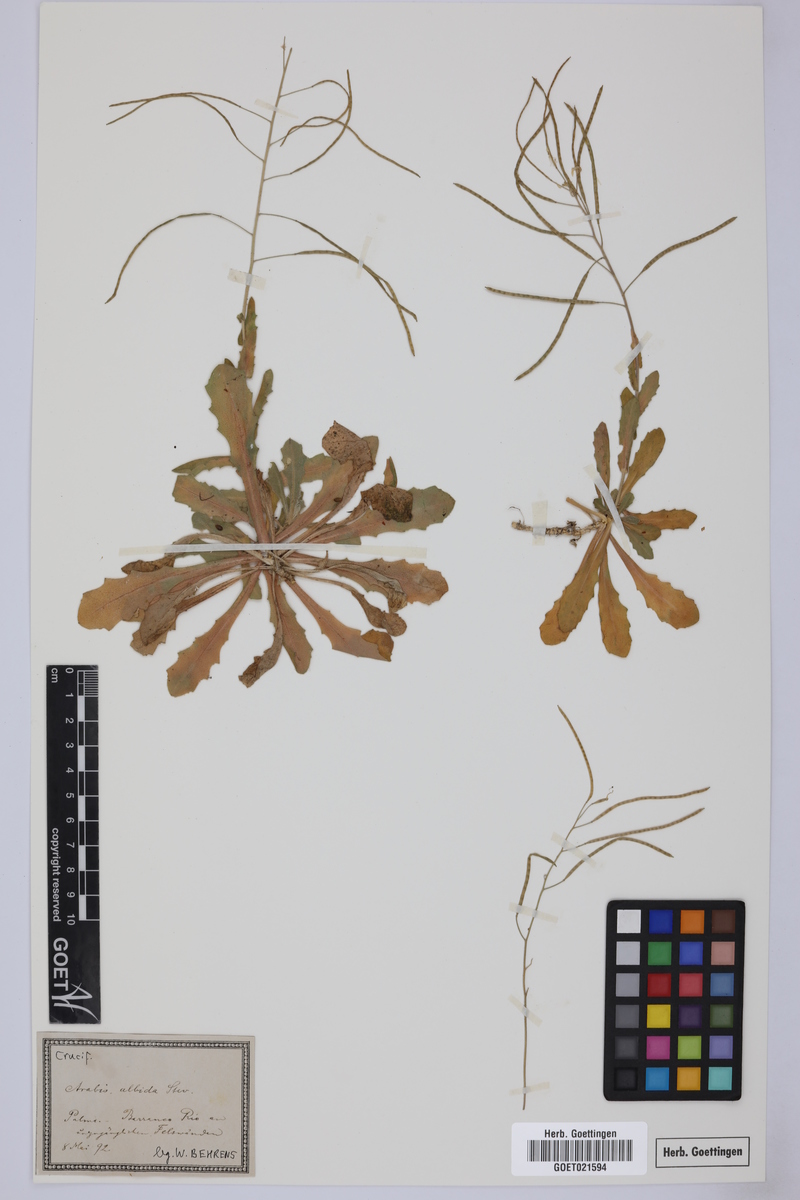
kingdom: Plantae
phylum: Tracheophyta
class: Magnoliopsida
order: Brassicales
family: Brassicaceae
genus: Arabis
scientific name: Arabis caucasica
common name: Gray rockcress
